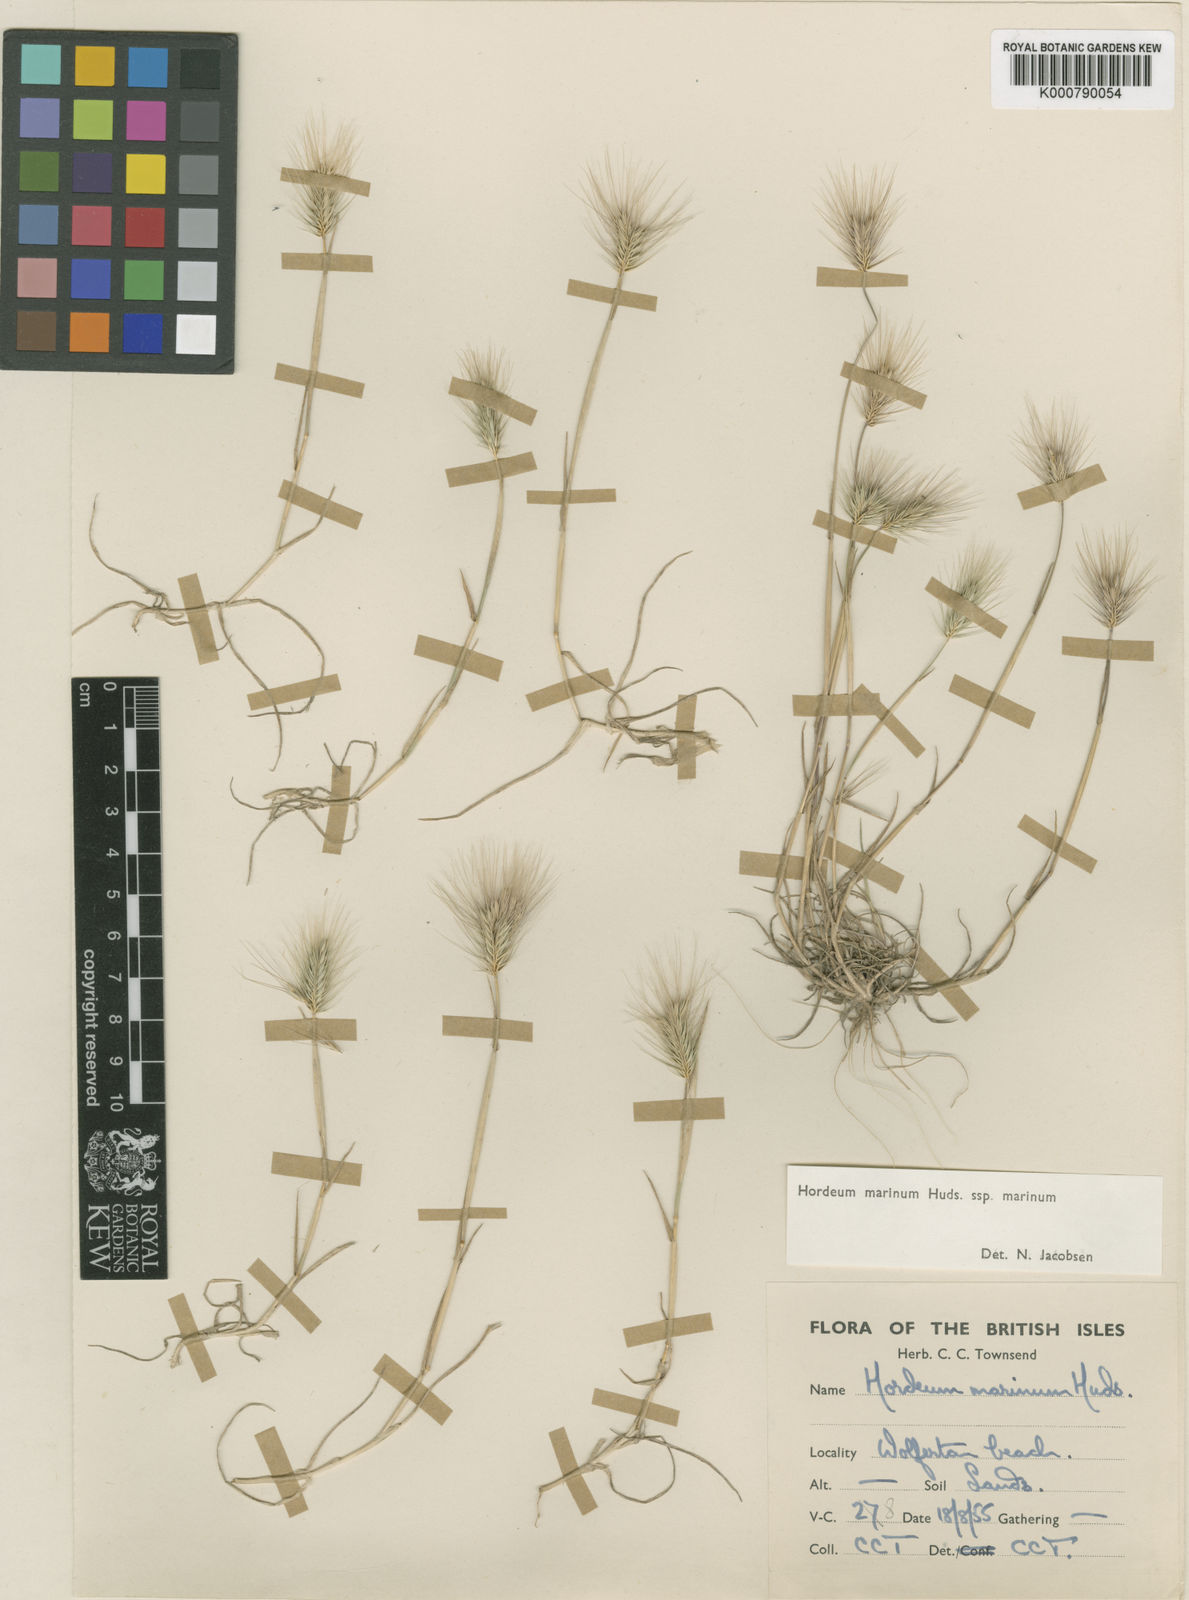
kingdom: Plantae
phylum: Tracheophyta
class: Liliopsida
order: Poales
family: Poaceae
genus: Hordeum
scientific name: Hordeum marinum
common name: Sea barley
